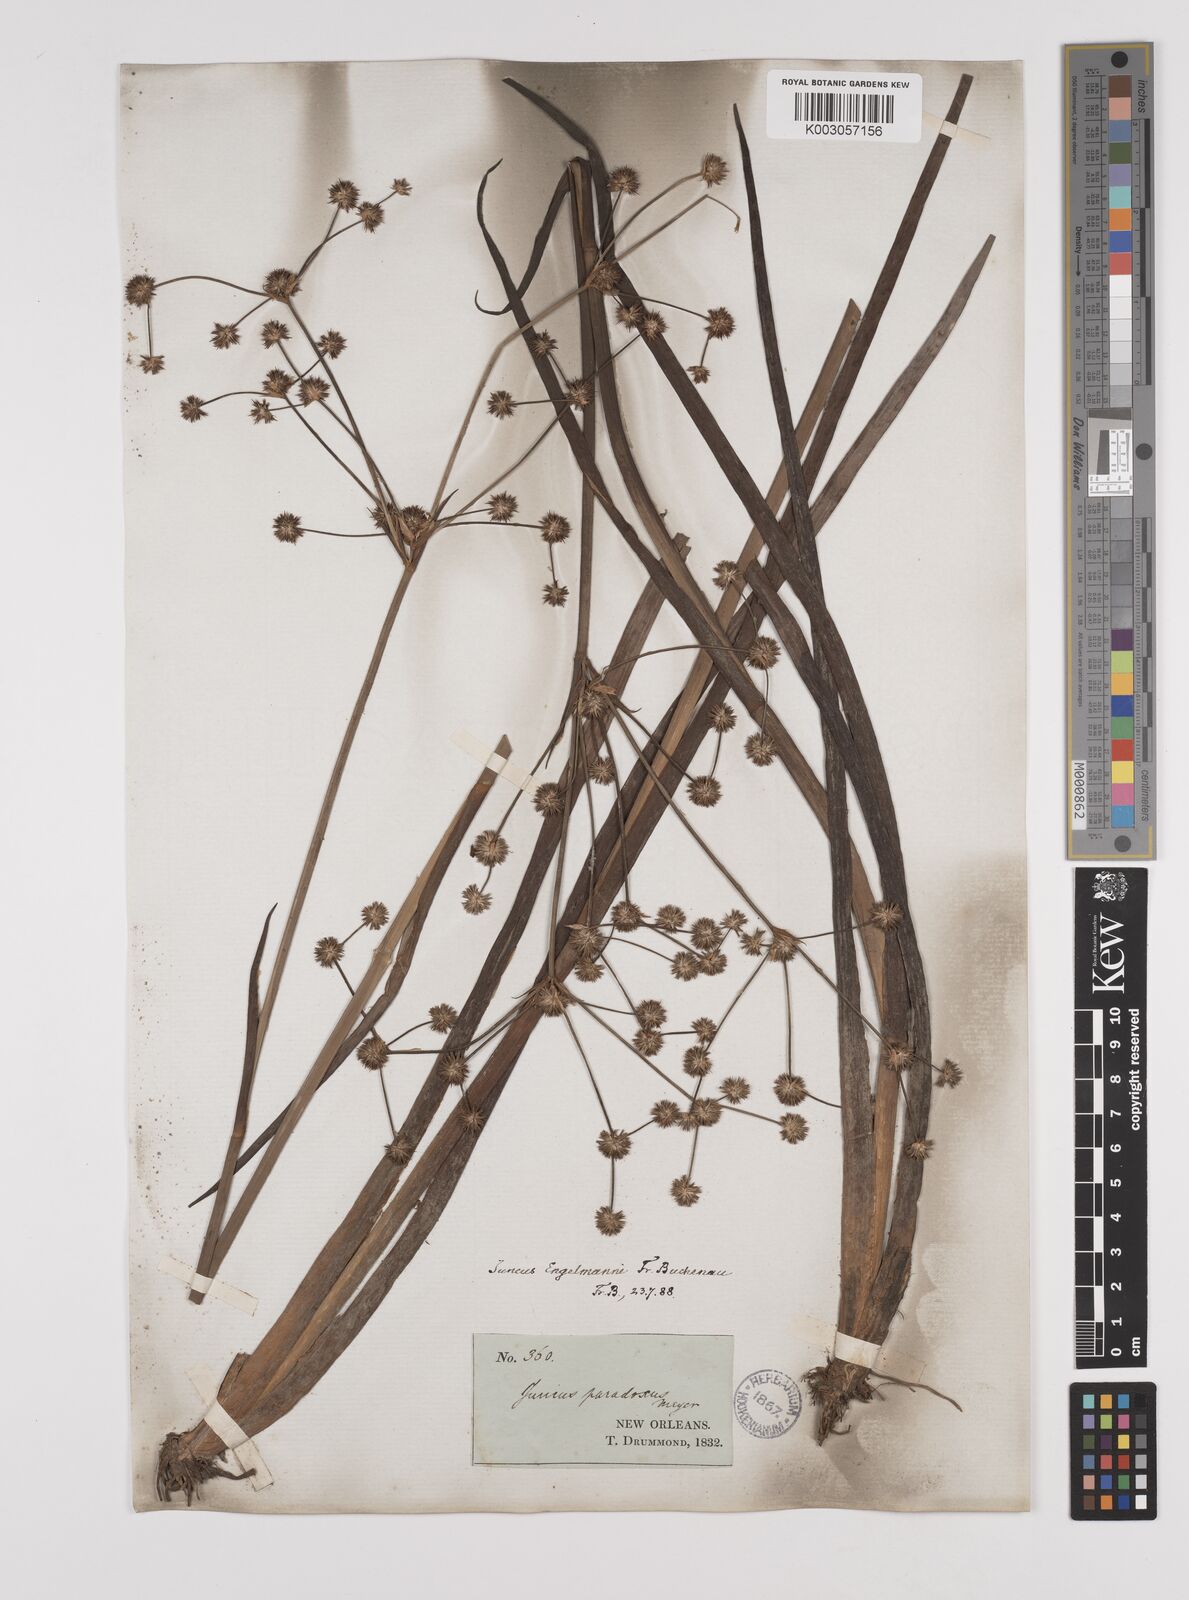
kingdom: Plantae
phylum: Tracheophyta
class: Liliopsida
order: Poales
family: Juncaceae
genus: Juncus
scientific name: Juncus articulatus
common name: Jointed rush
